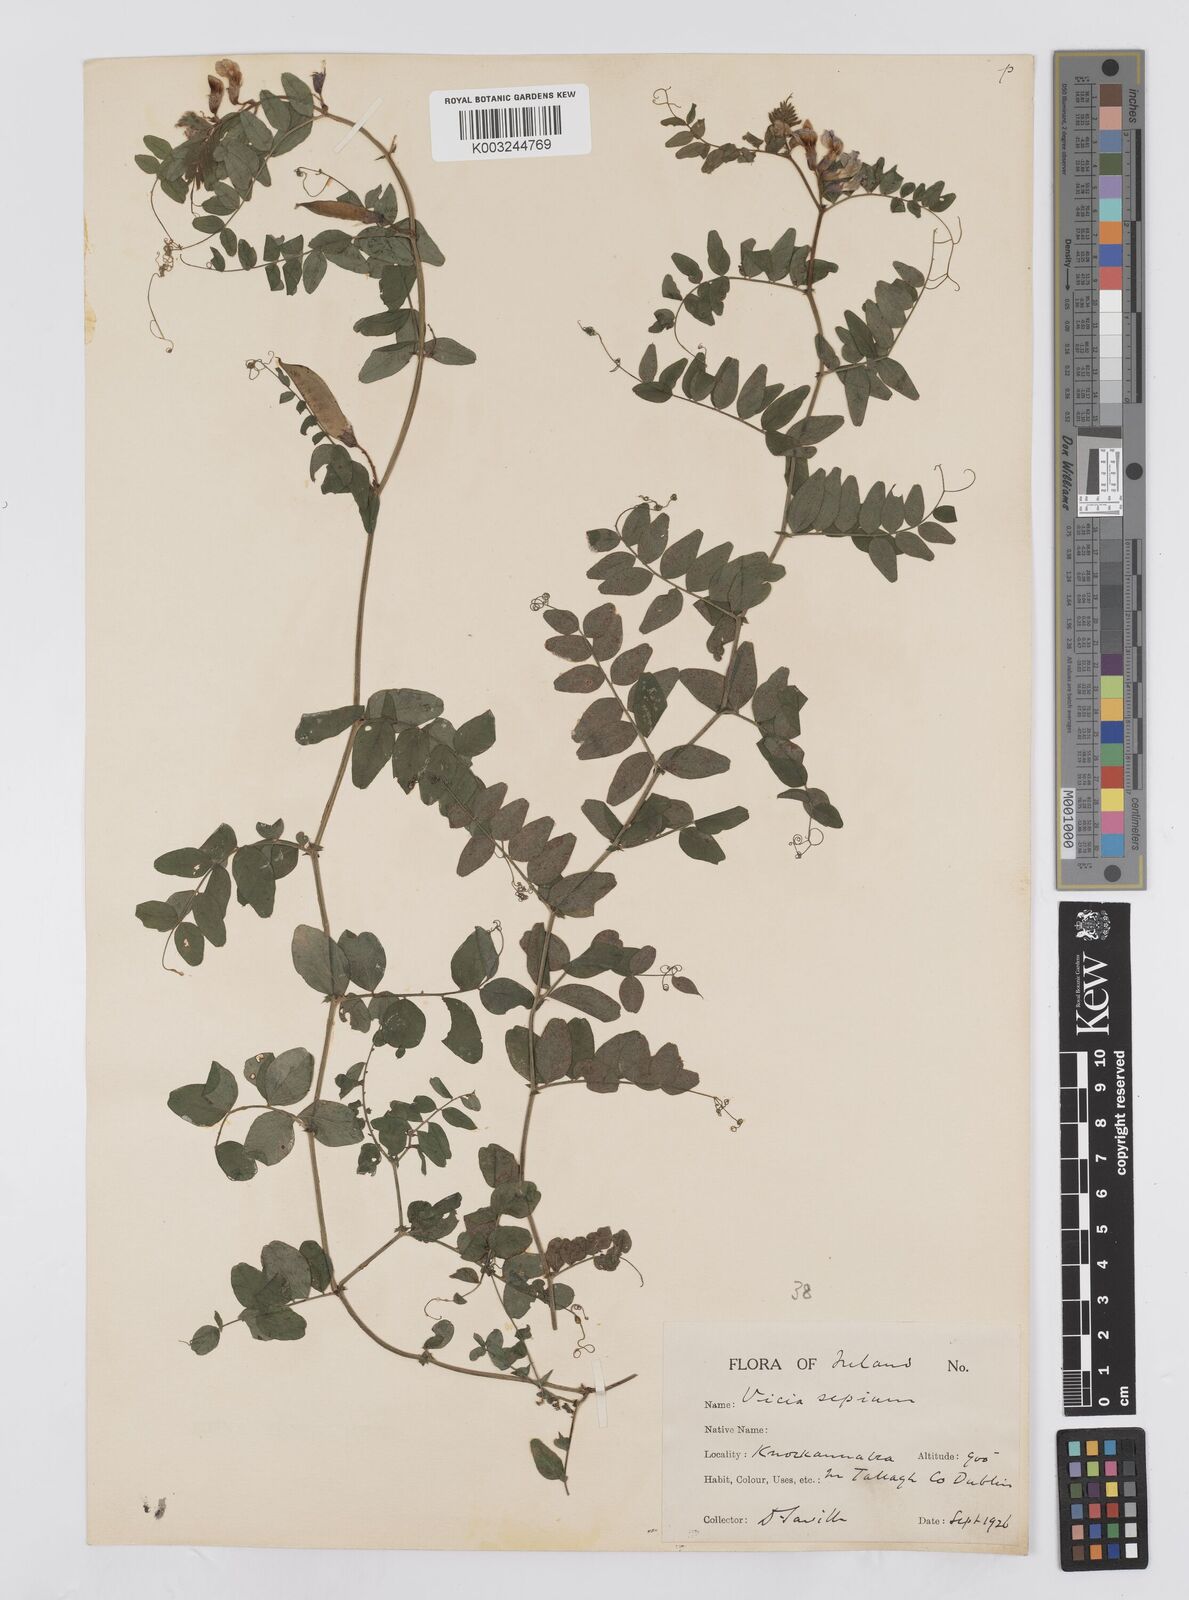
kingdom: Plantae
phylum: Tracheophyta
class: Magnoliopsida
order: Fabales
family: Fabaceae
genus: Vicia
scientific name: Vicia sepium
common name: Bush vetch
